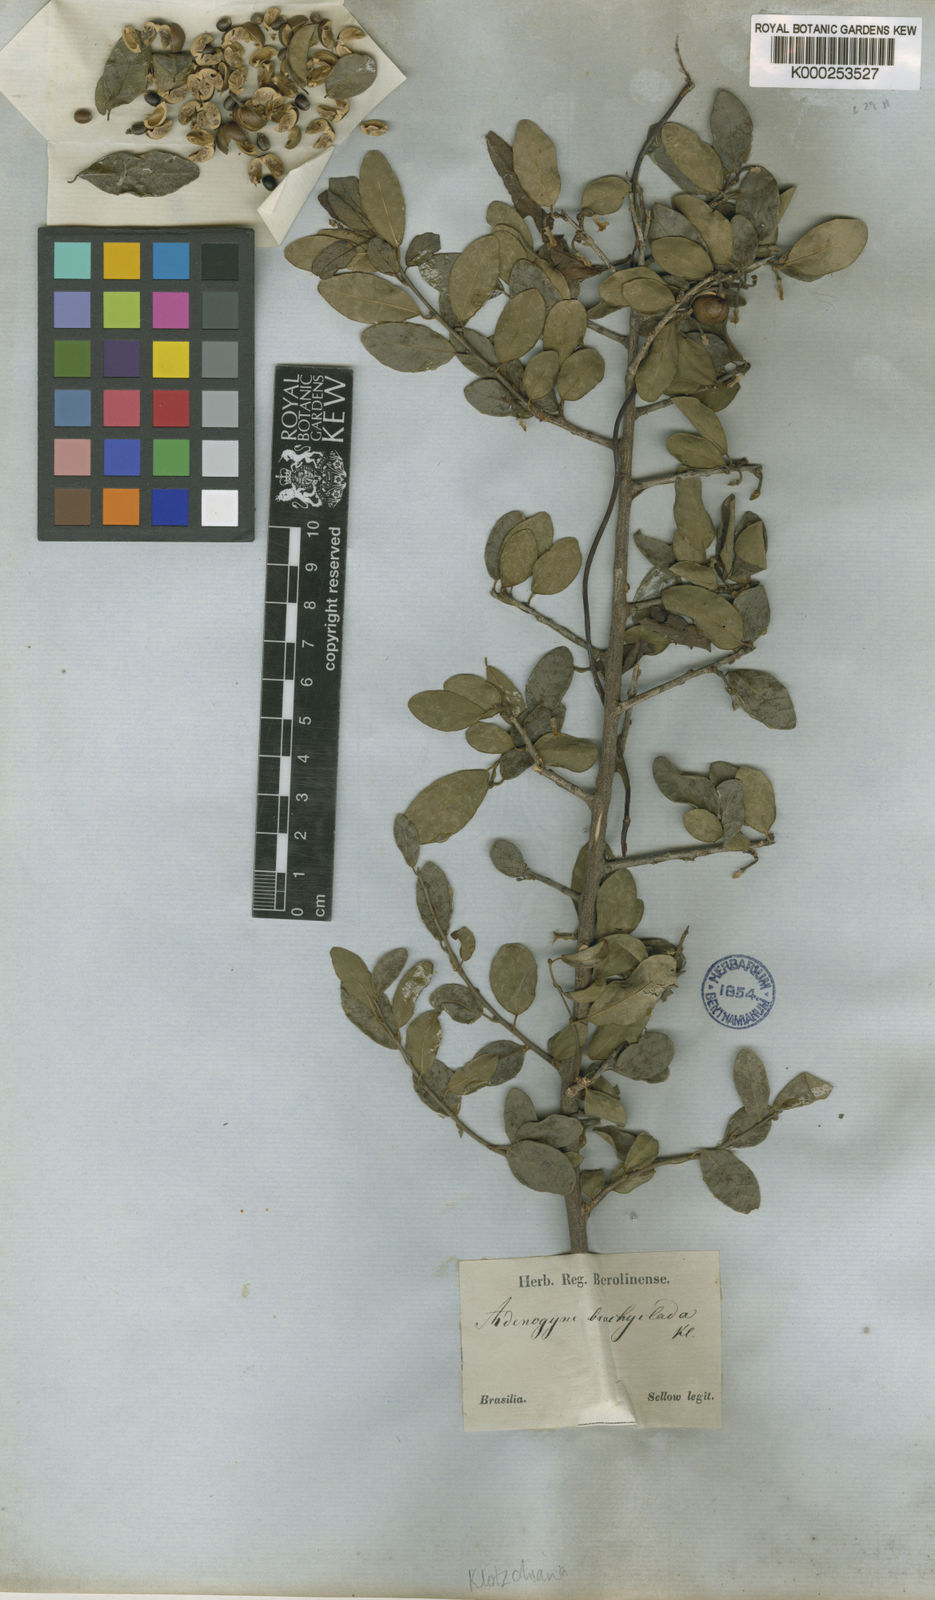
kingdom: Plantae
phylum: Tracheophyta
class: Magnoliopsida
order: Malpighiales
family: Euphorbiaceae
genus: Gymnanthes
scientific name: Gymnanthes
